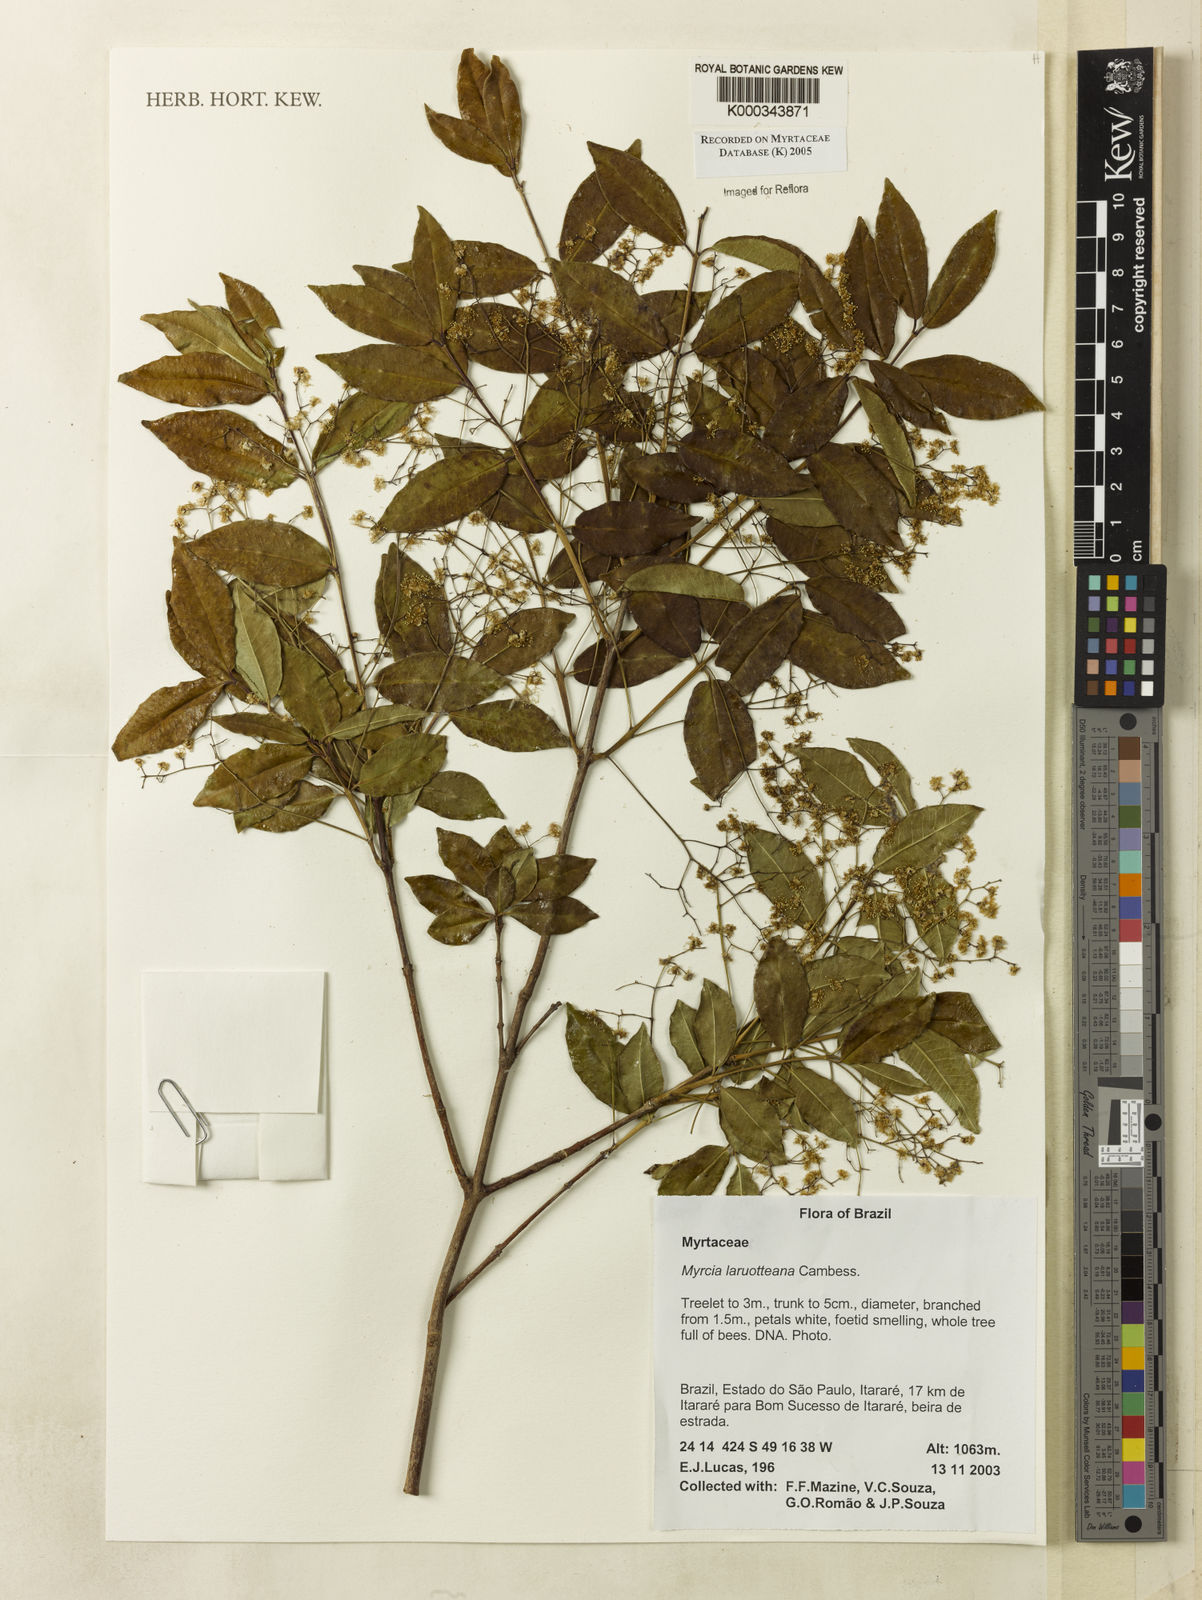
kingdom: Plantae
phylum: Tracheophyta
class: Magnoliopsida
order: Myrtales
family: Myrtaceae
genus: Myrcia
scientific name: Myrcia laruotteana
